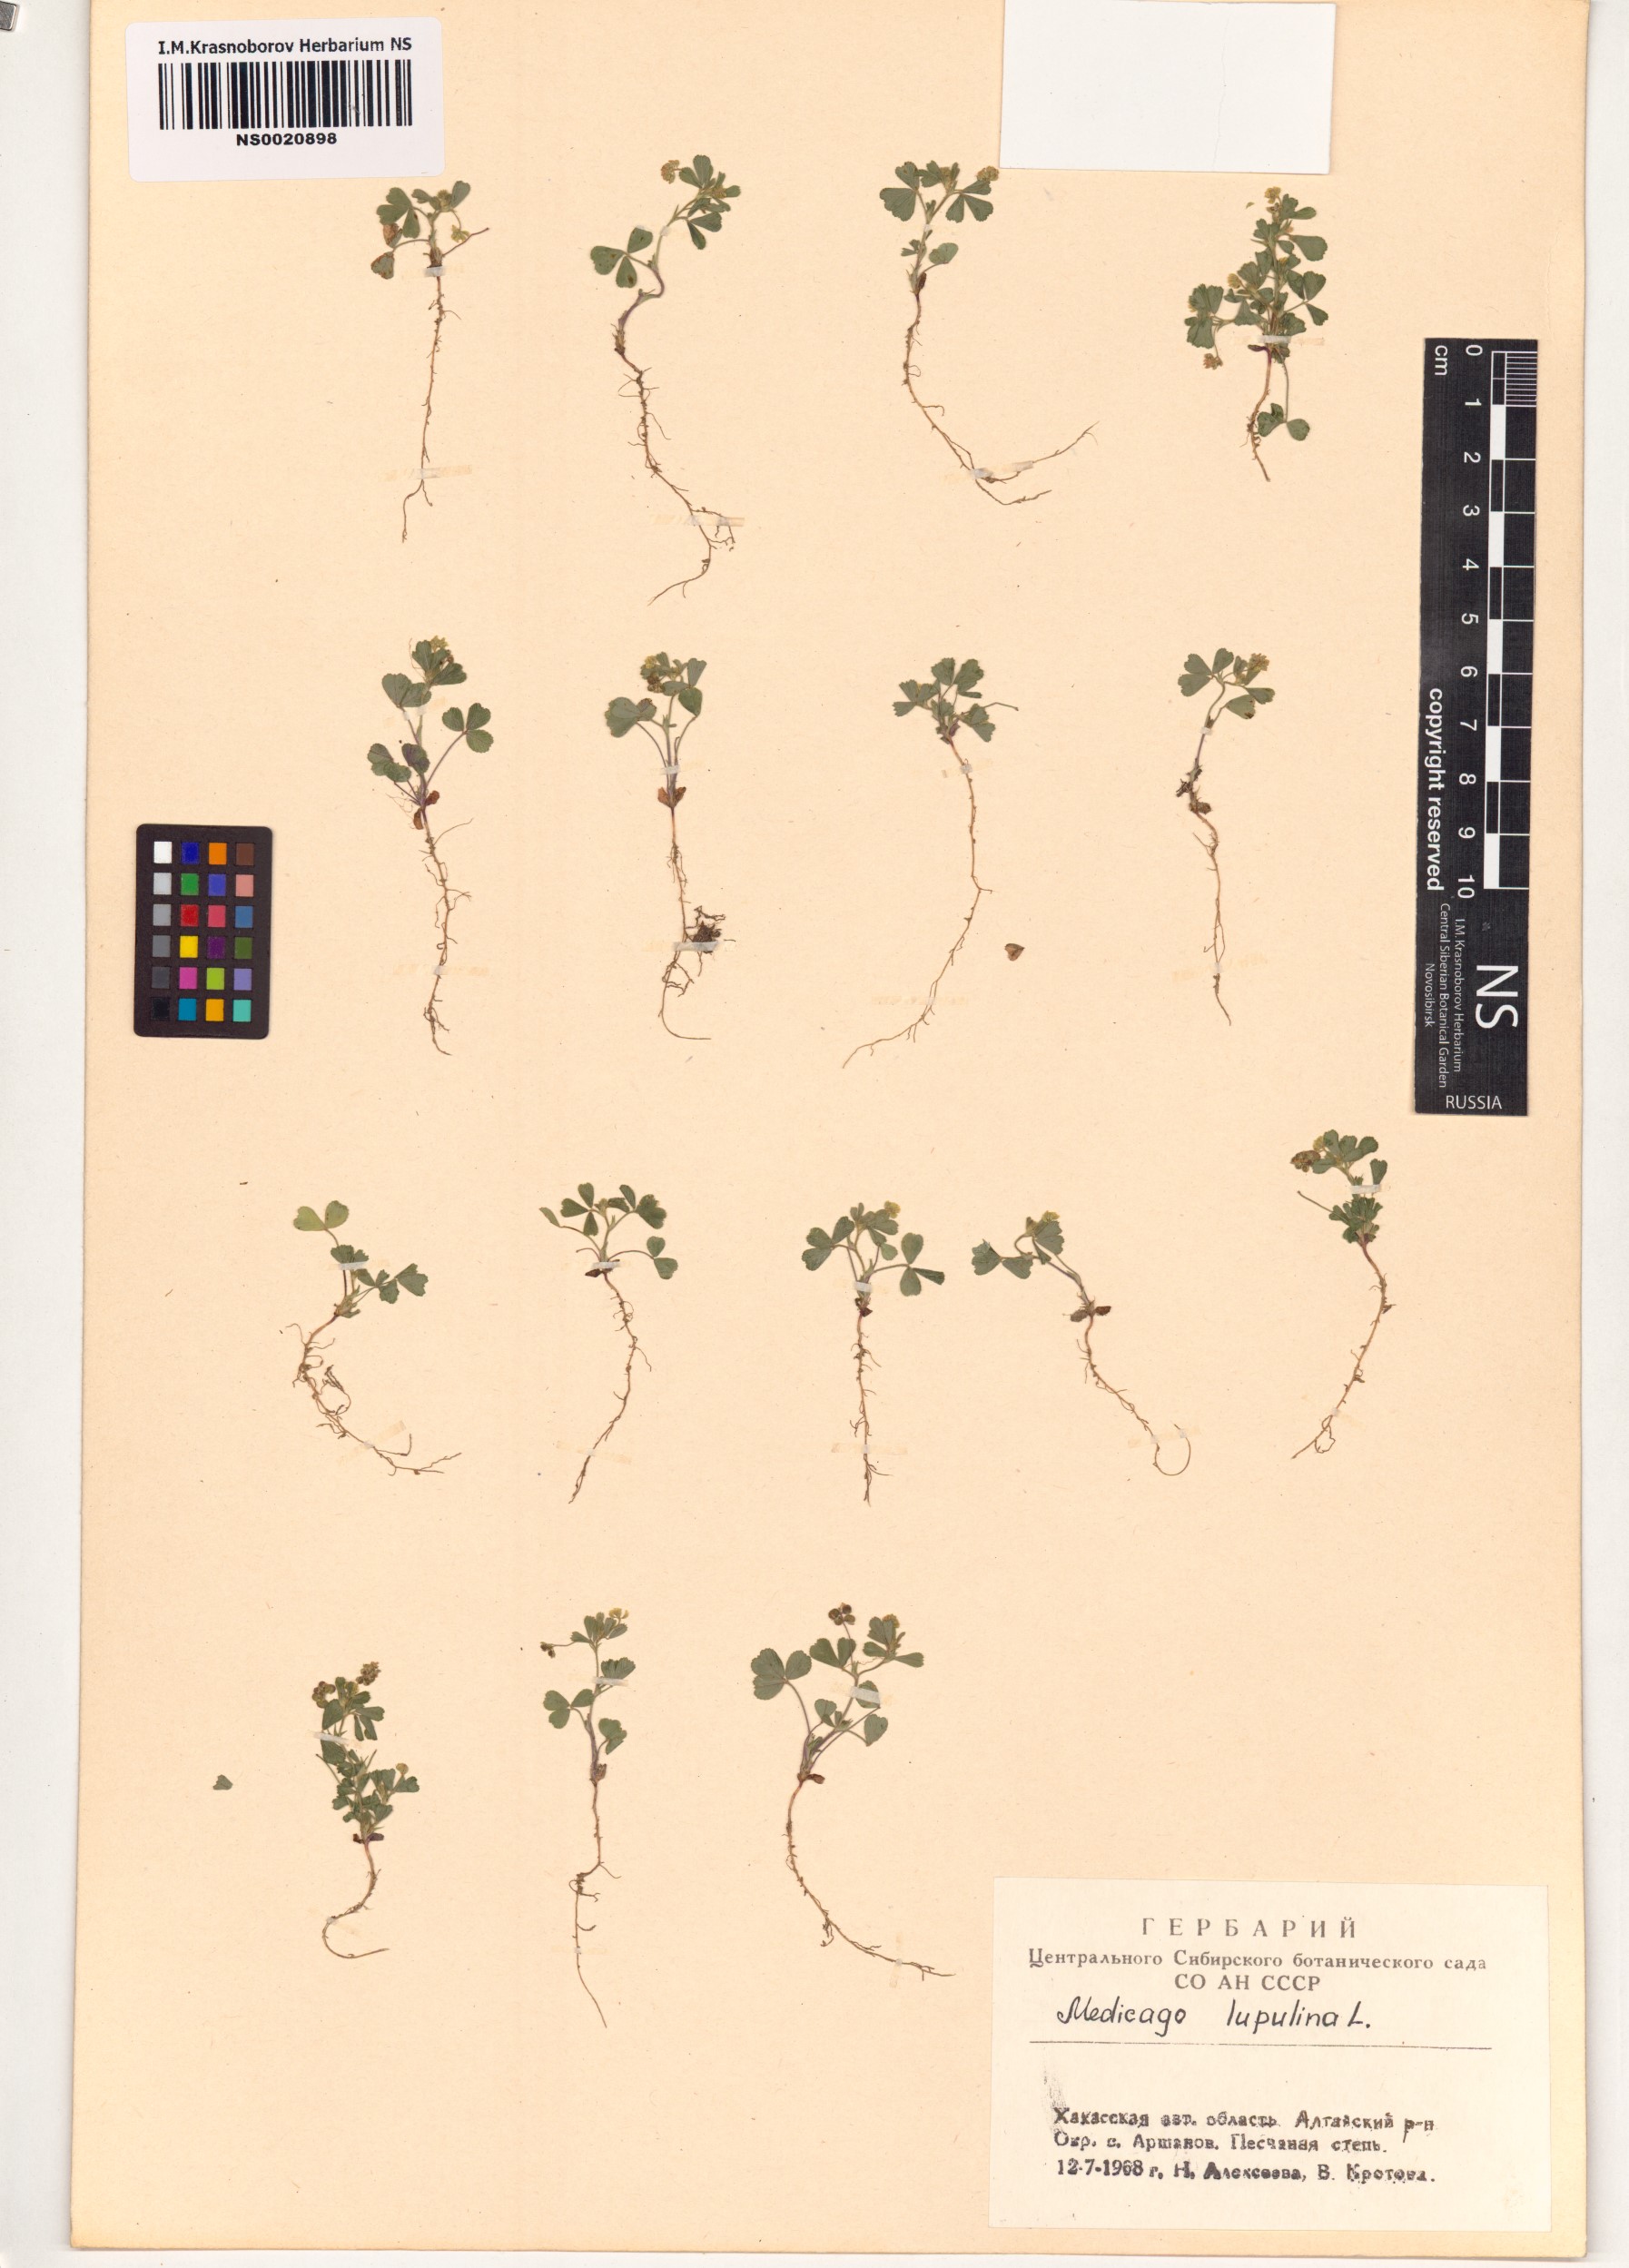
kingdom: Plantae
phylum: Tracheophyta
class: Magnoliopsida
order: Fabales
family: Fabaceae
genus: Medicago
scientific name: Medicago lupulina
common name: Black medick
